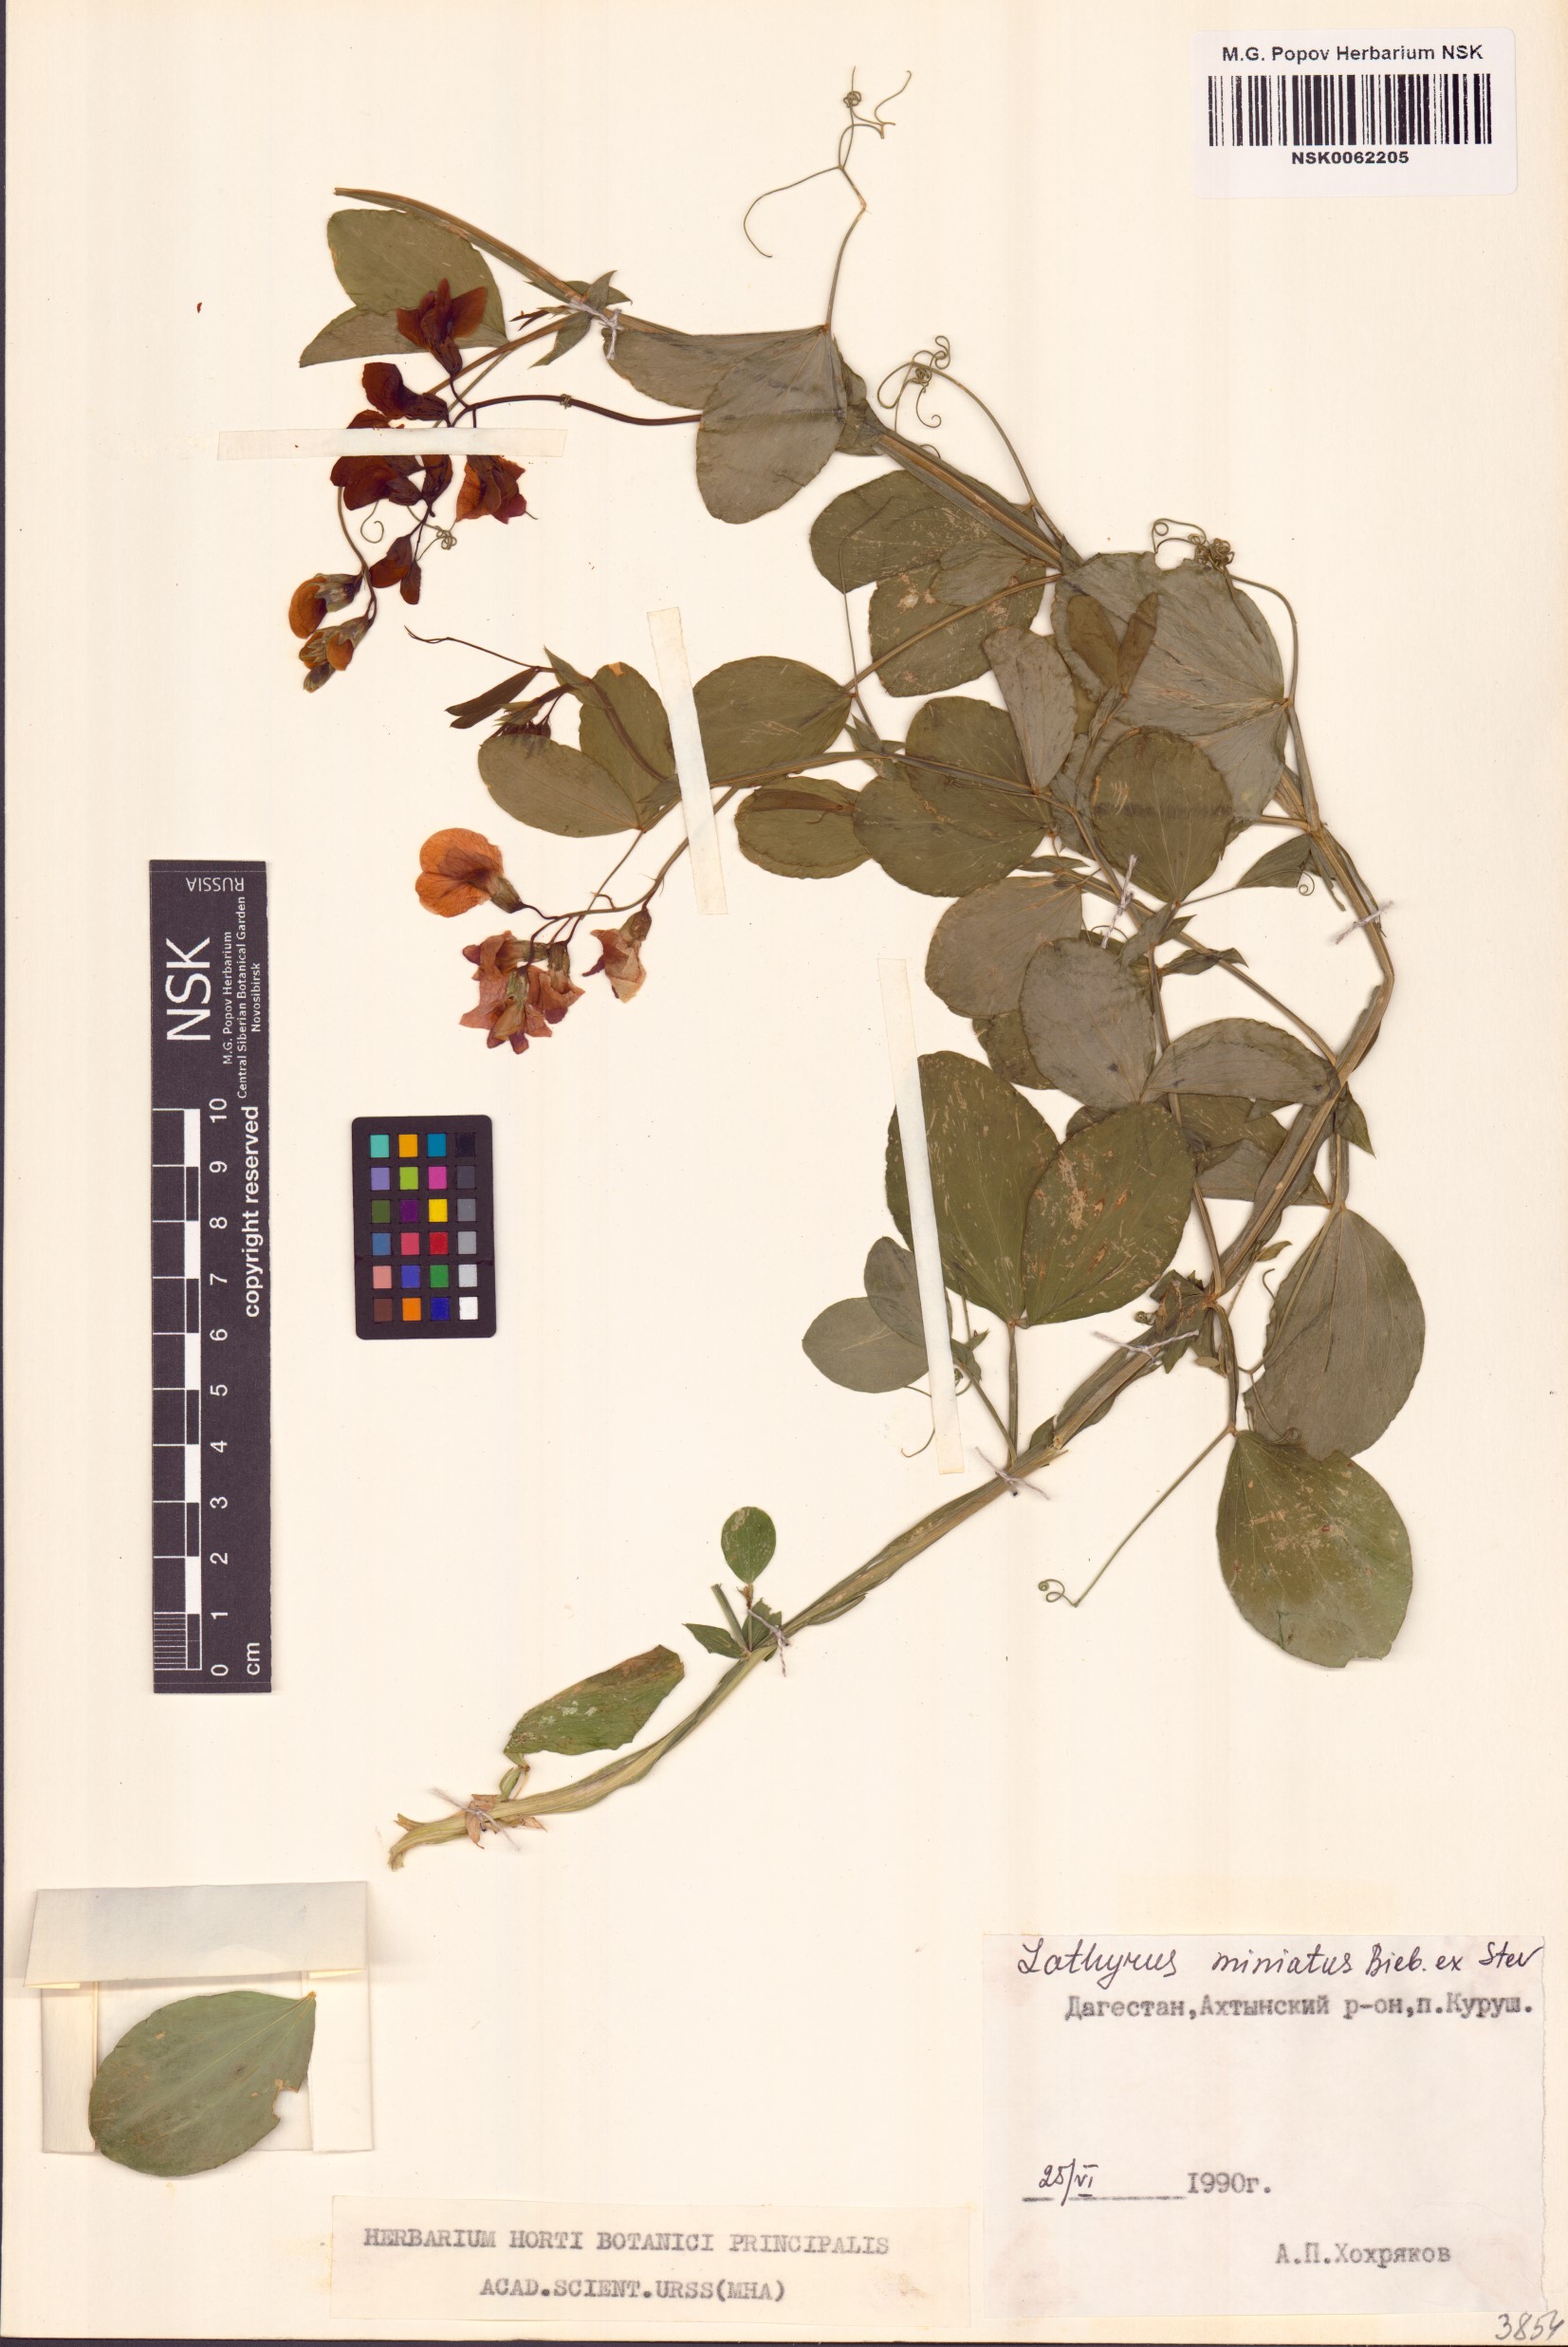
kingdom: Plantae
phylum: Tracheophyta
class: Magnoliopsida
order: Fabales
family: Fabaceae
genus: Lathyrus
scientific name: Lathyrus miniatus
